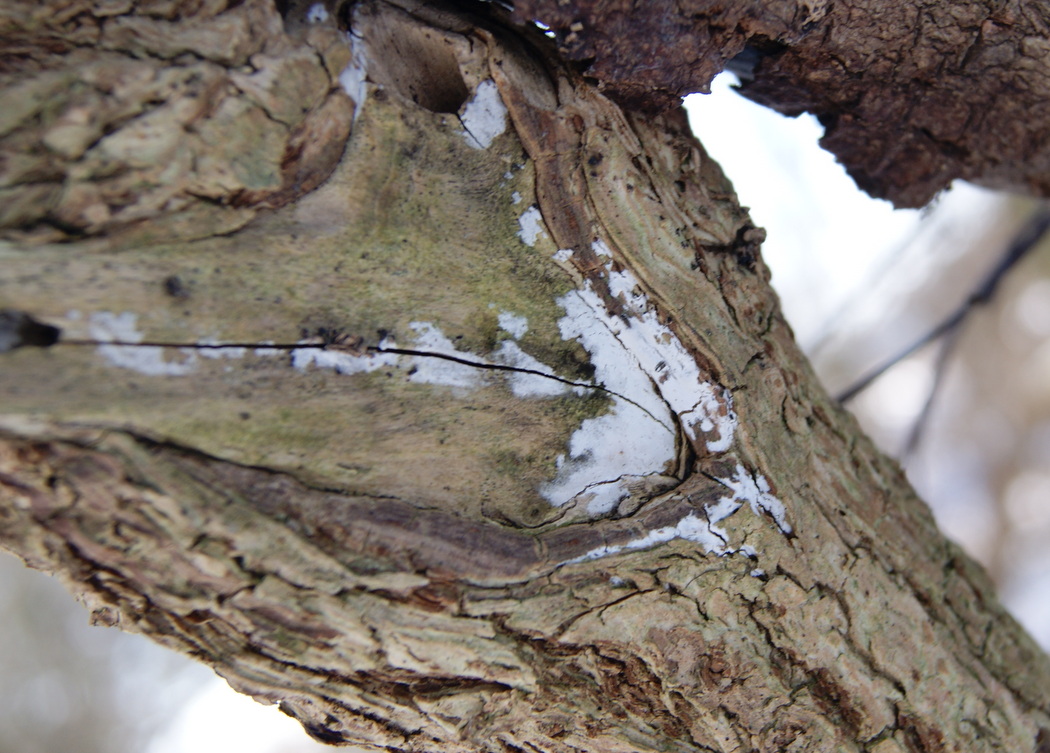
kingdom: Fungi
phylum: Basidiomycota
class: Agaricomycetes
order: Corticiales
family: Corticiaceae
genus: Lyomyces
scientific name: Lyomyces sambuci
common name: almindelig hyldehinde
